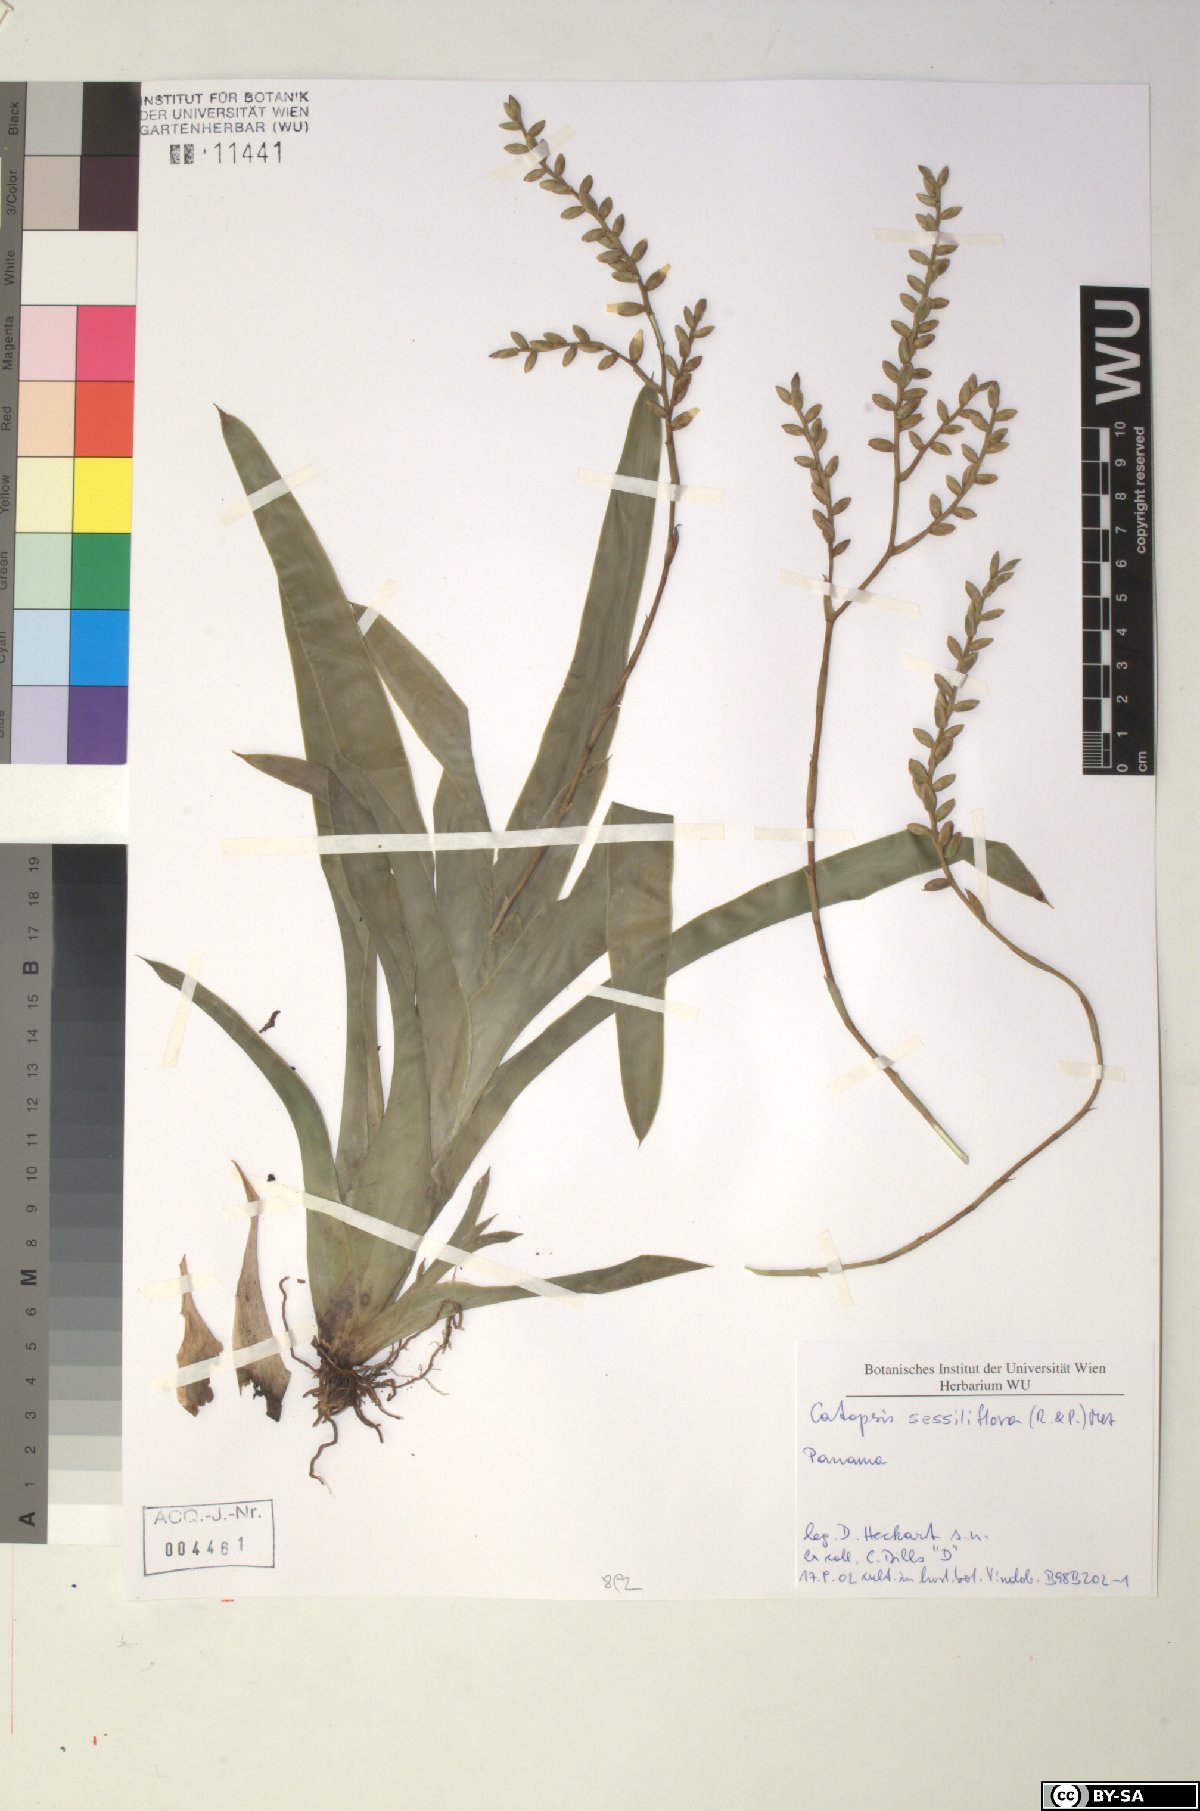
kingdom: Plantae
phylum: Tracheophyta
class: Liliopsida
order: Poales
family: Bromeliaceae
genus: Catopsis
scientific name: Catopsis sessiliflora
